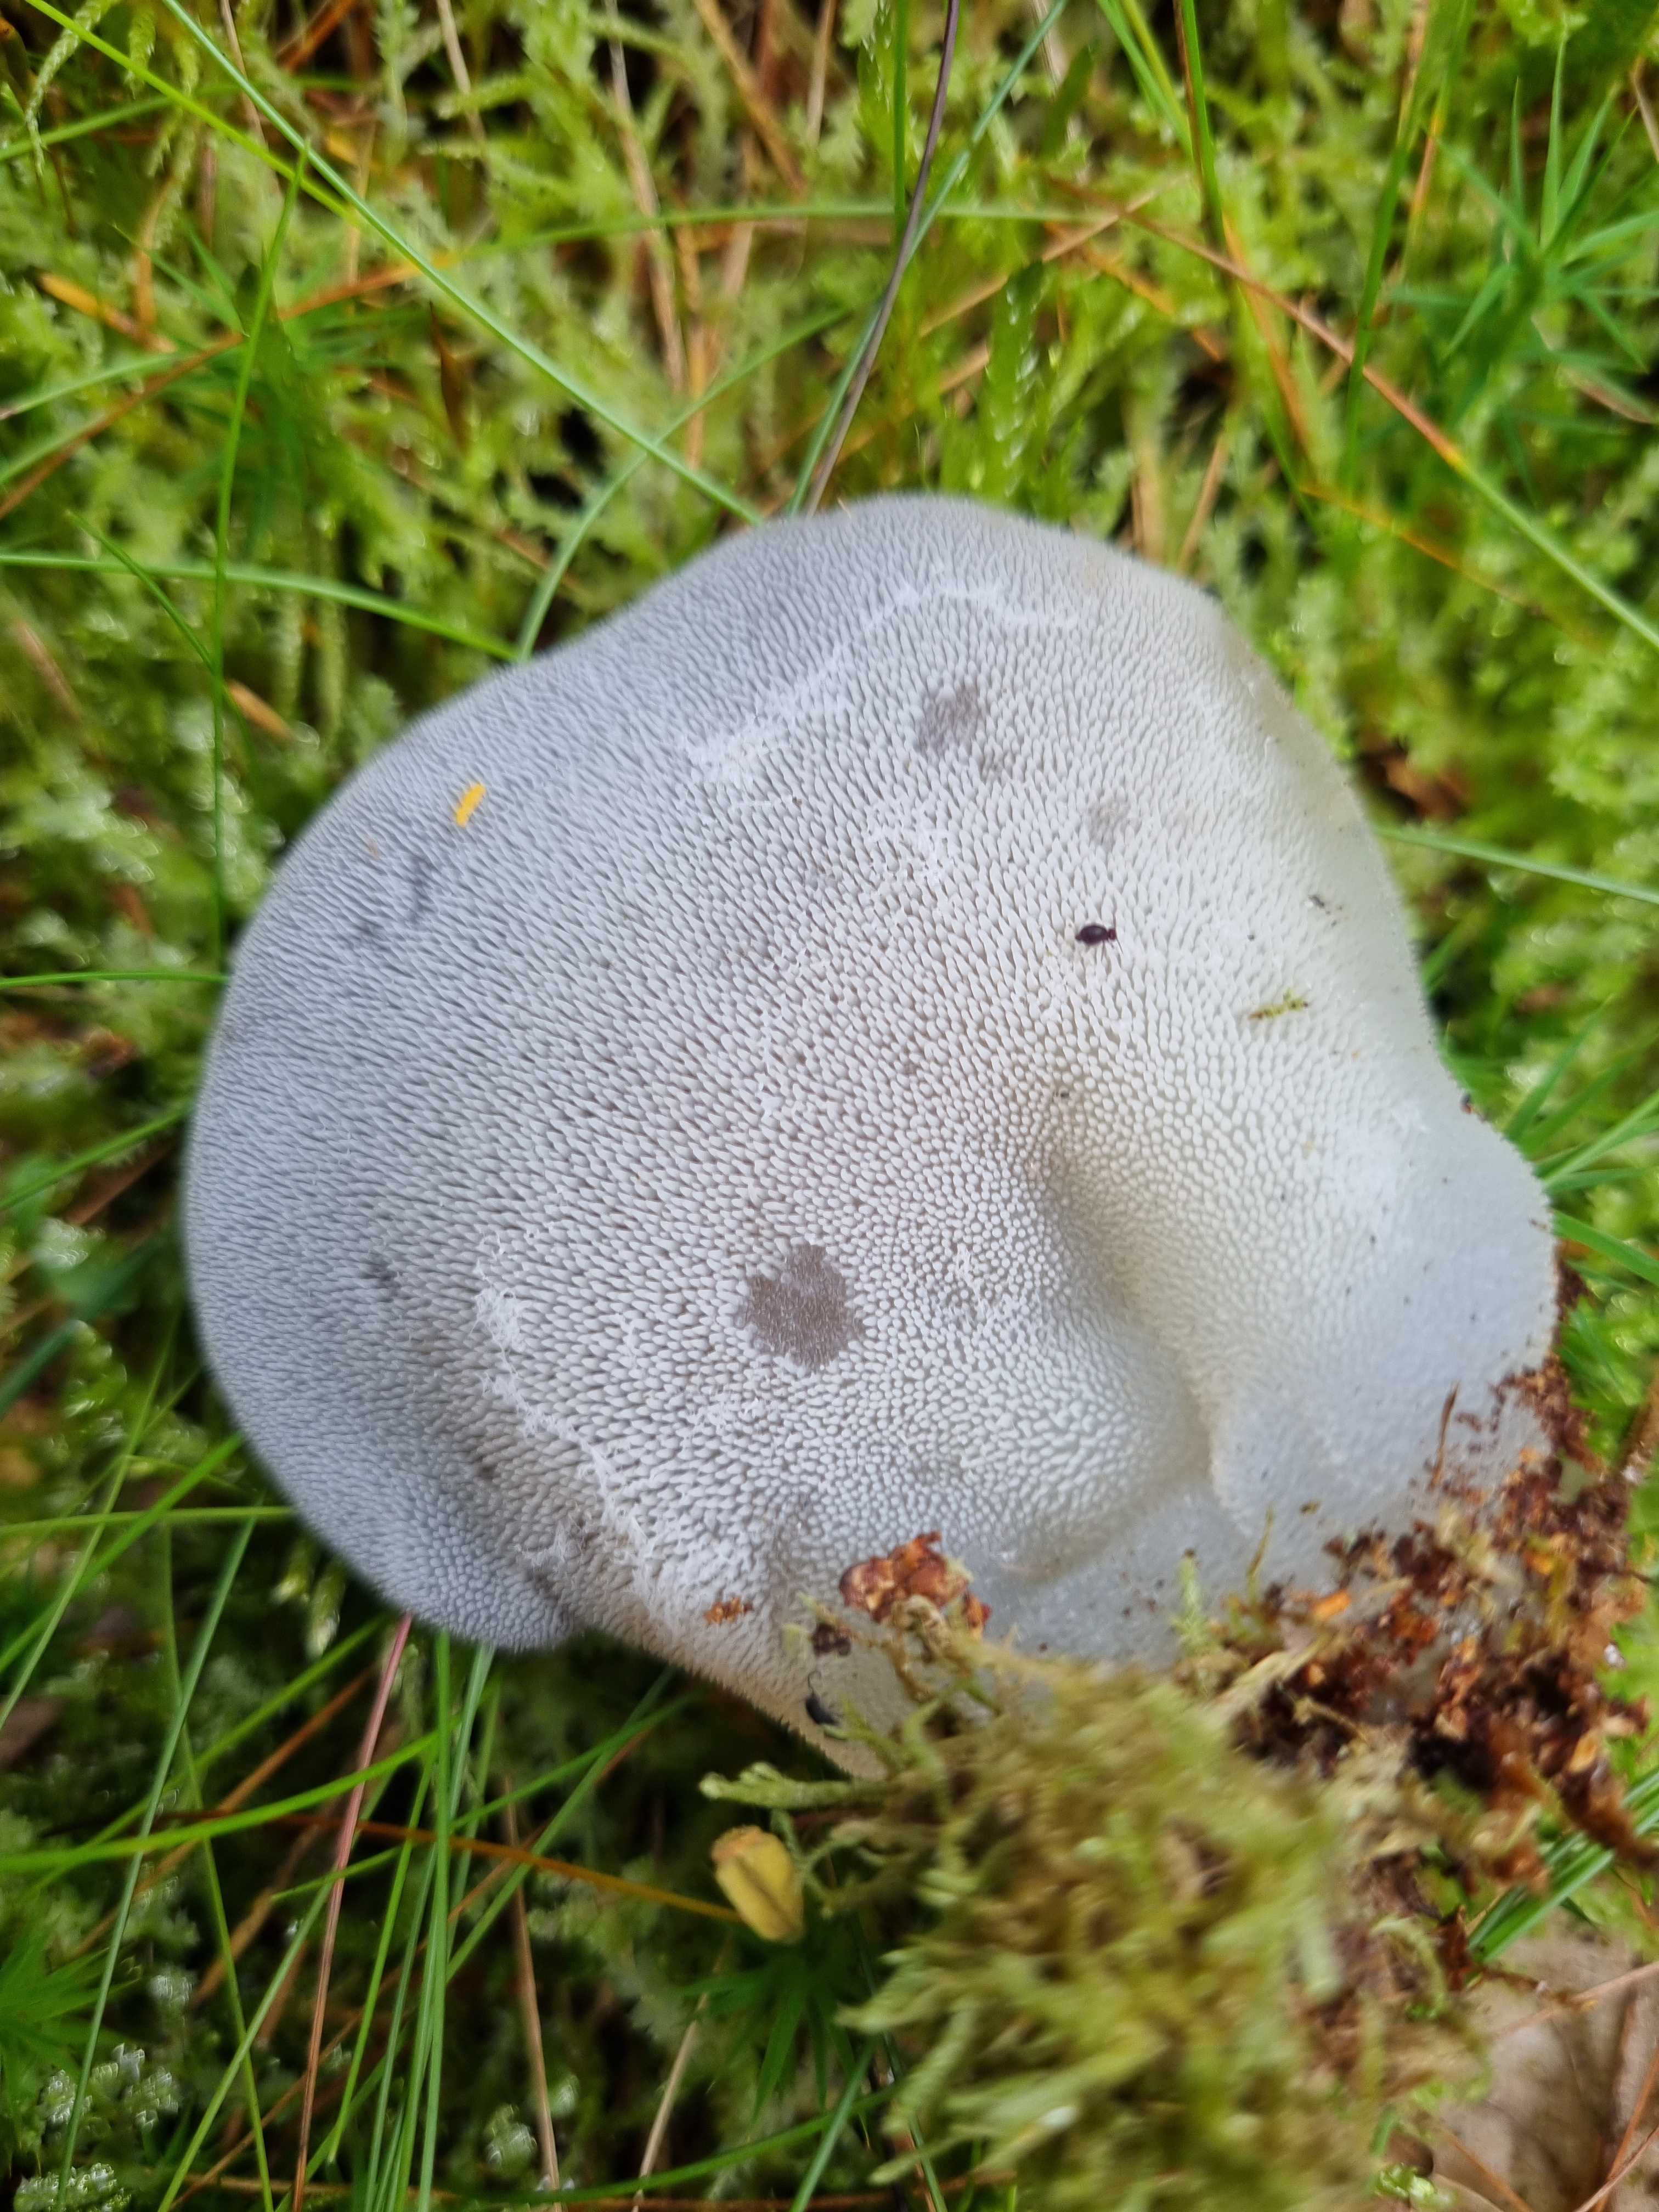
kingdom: Fungi
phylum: Basidiomycota
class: Agaricomycetes
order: Auriculariales
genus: Pseudohydnum
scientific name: Pseudohydnum gelatinosum
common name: bævretand
